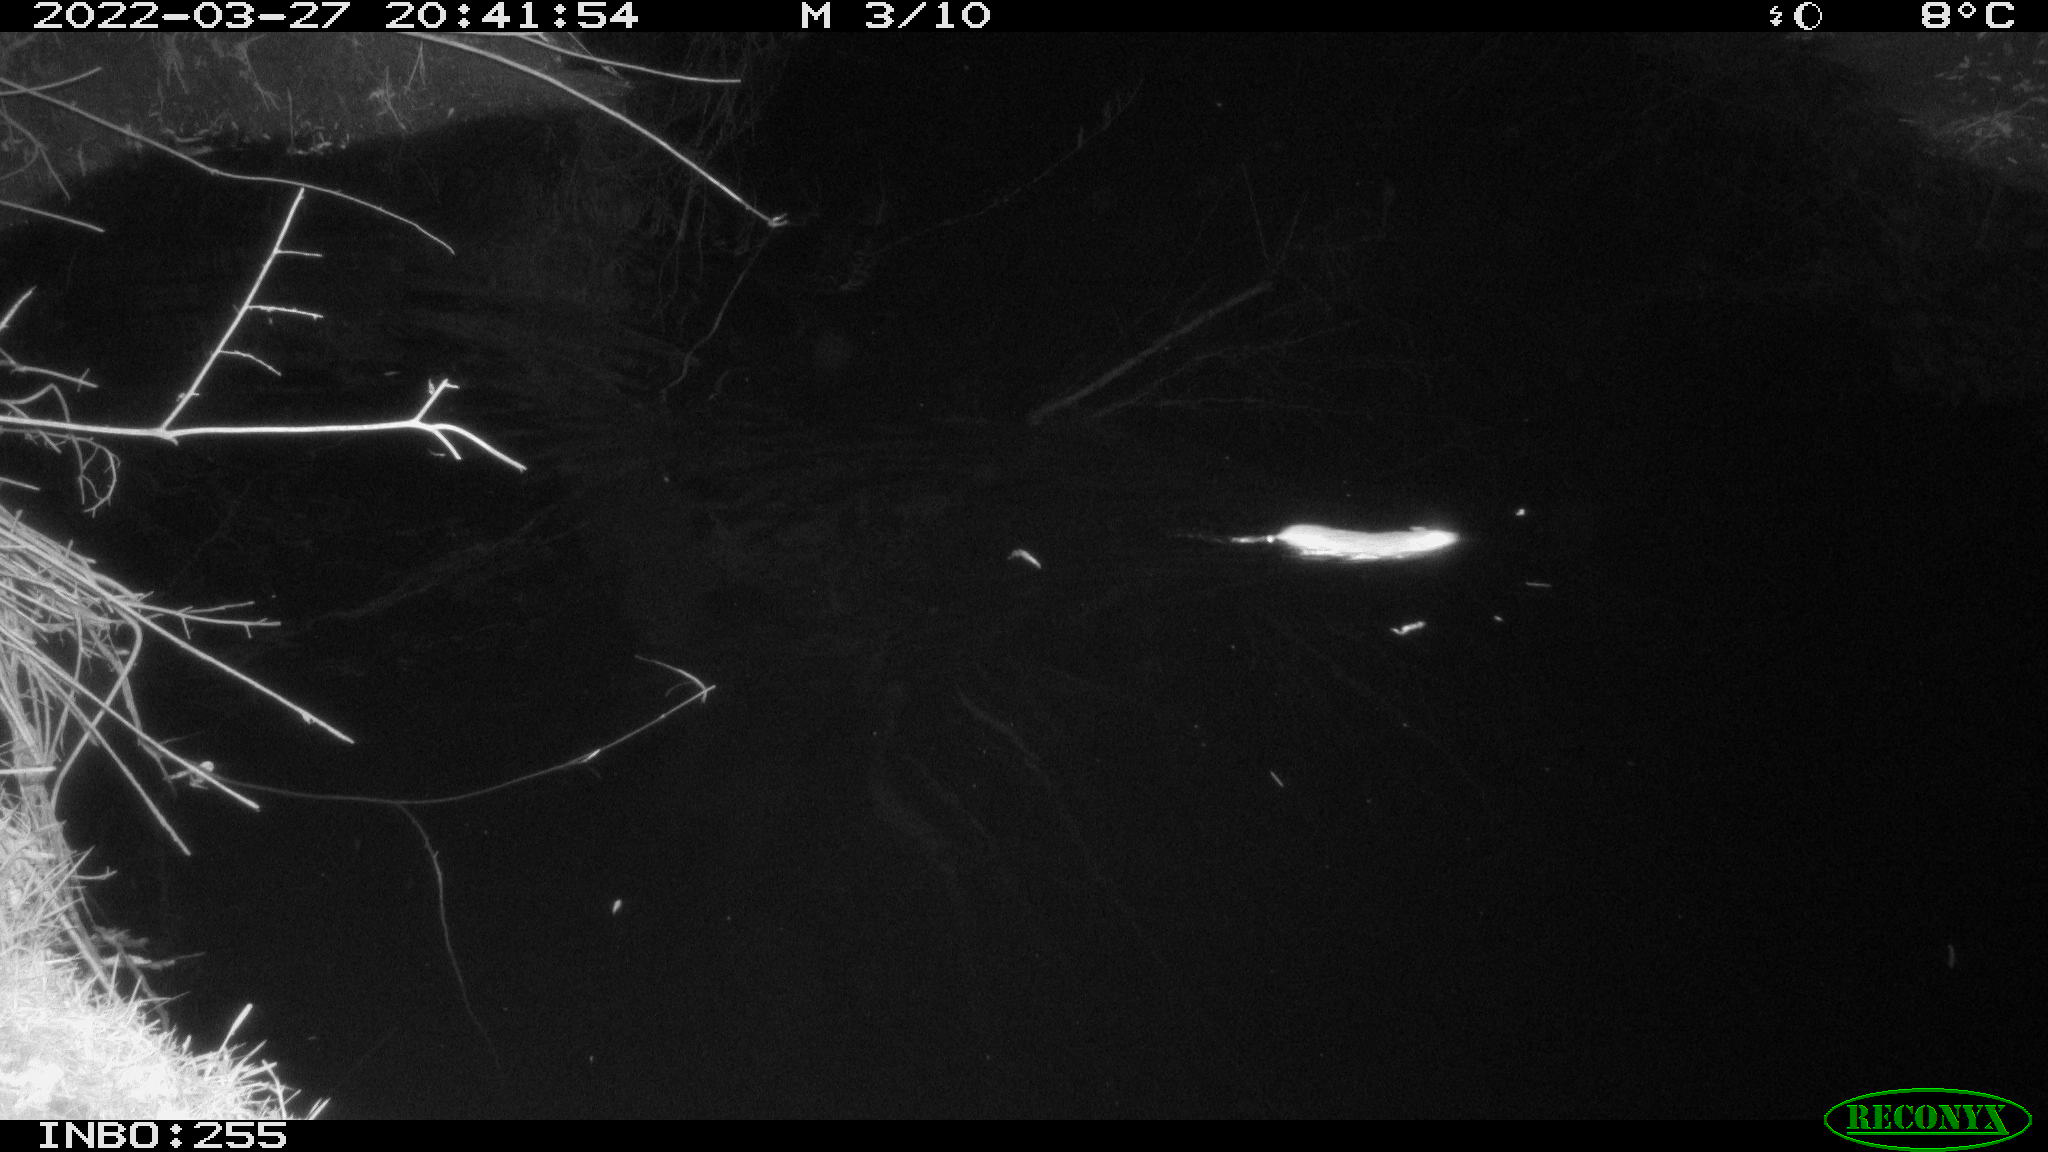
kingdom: Animalia
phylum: Chordata
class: Mammalia
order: Rodentia
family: Muridae
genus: Rattus
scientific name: Rattus norvegicus
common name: Brown rat
